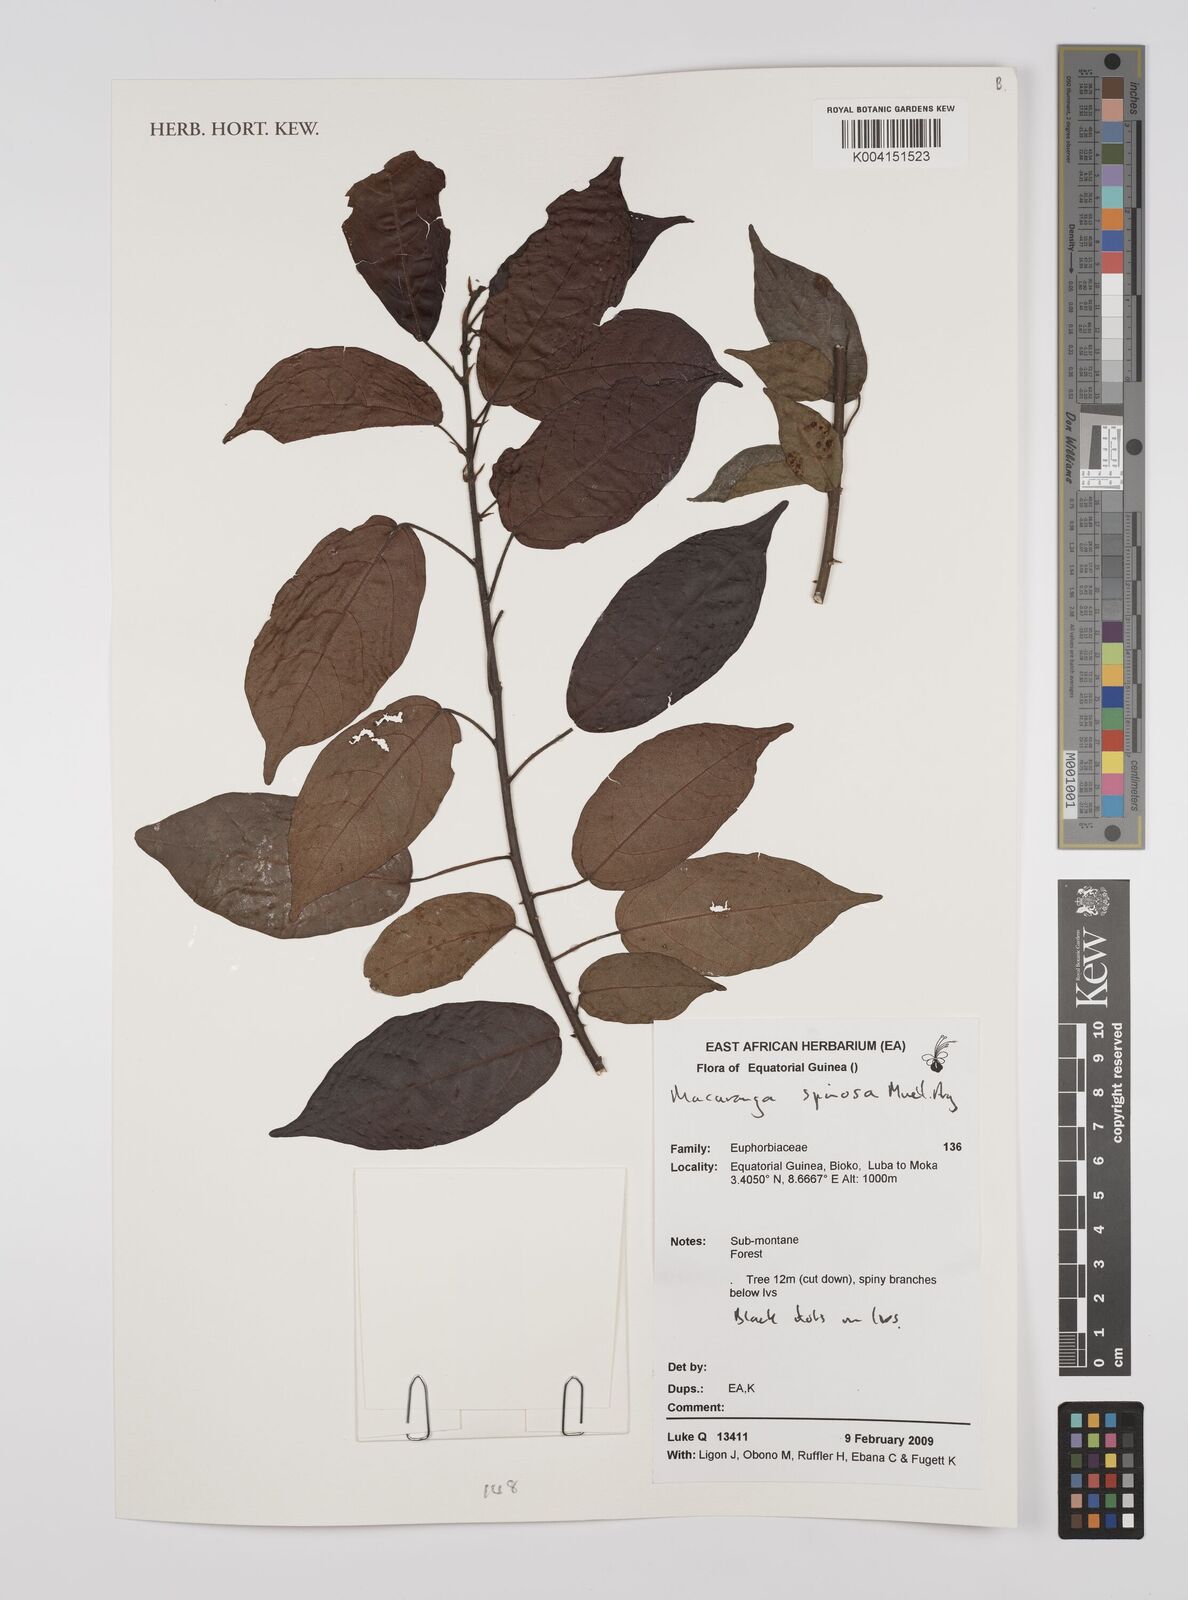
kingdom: Plantae
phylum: Tracheophyta
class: Magnoliopsida
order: Malpighiales
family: Euphorbiaceae
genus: Macaranga
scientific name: Macaranga spinosa
